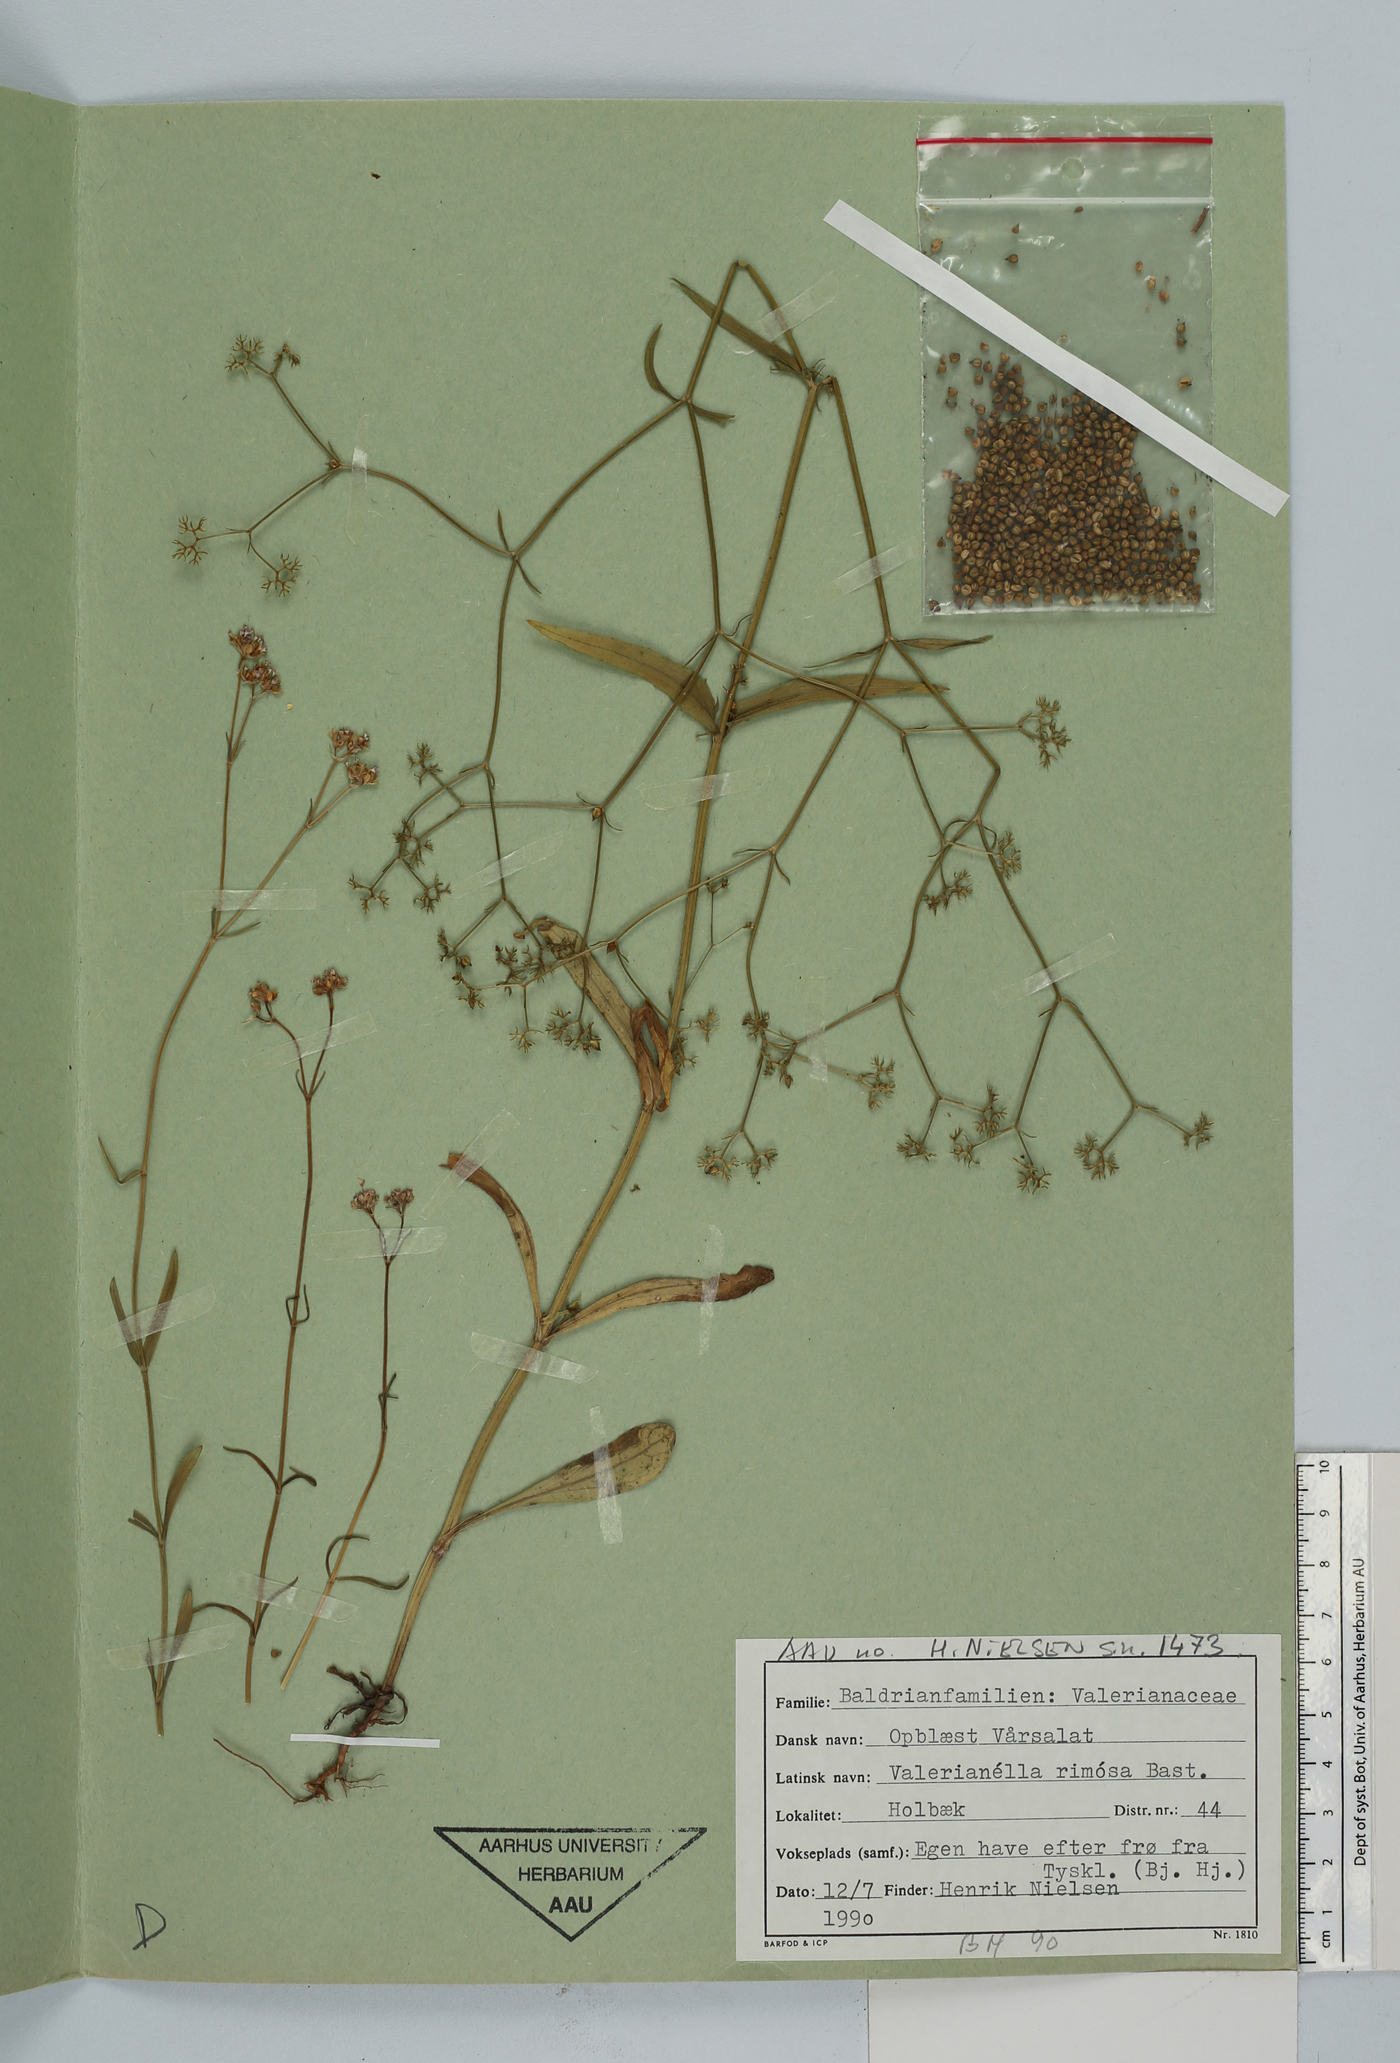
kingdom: Plantae
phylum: Tracheophyta
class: Magnoliopsida
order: Dipsacales
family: Caprifoliaceae
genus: Valerianella
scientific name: Valerianella rimosa
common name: Broad-fruited cornsalad
